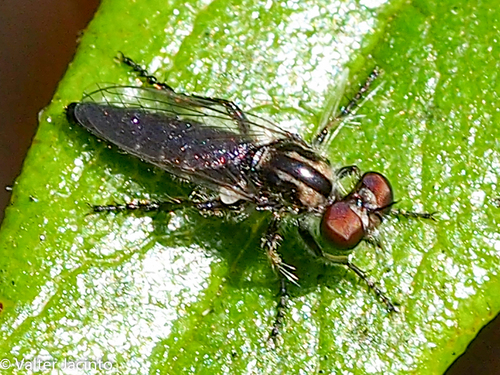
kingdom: Animalia
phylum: Arthropoda
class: Insecta
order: Diptera
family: Asilidae
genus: Holopogon
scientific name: Holopogon claripennis
